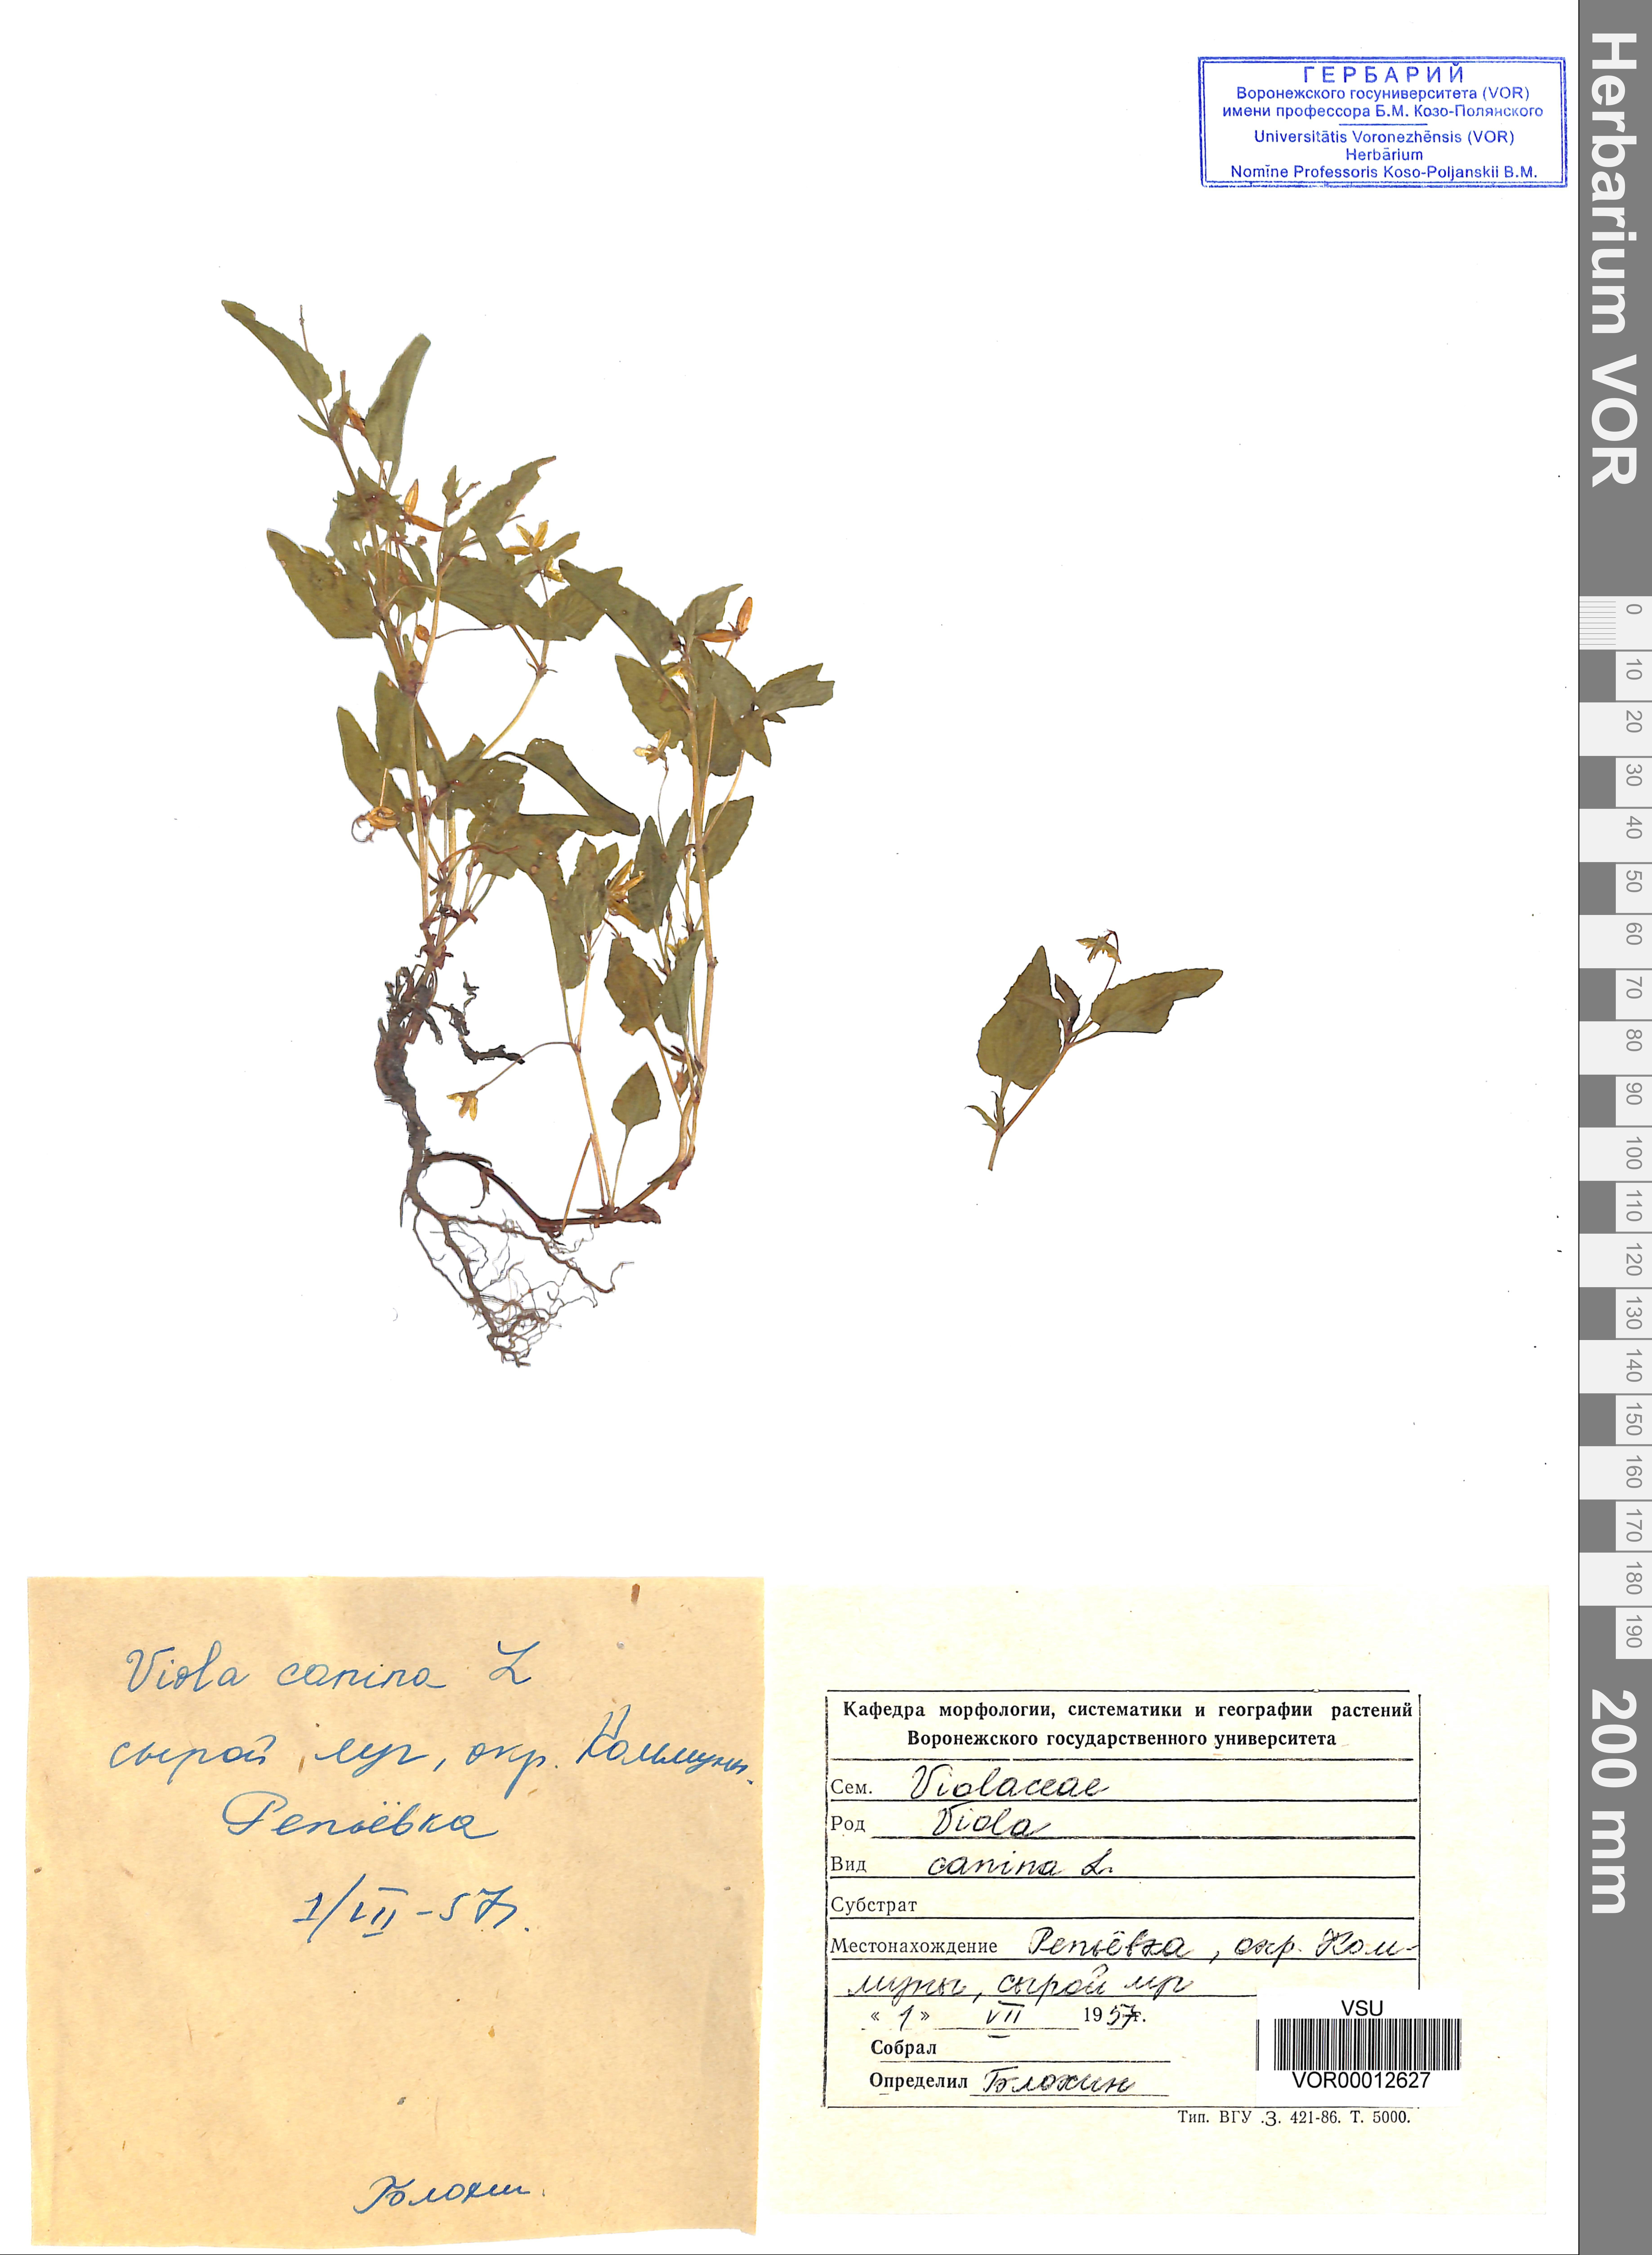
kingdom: Plantae
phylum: Tracheophyta
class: Magnoliopsida
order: Malpighiales
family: Violaceae
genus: Viola
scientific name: Viola canina
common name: Heath dog-violet
